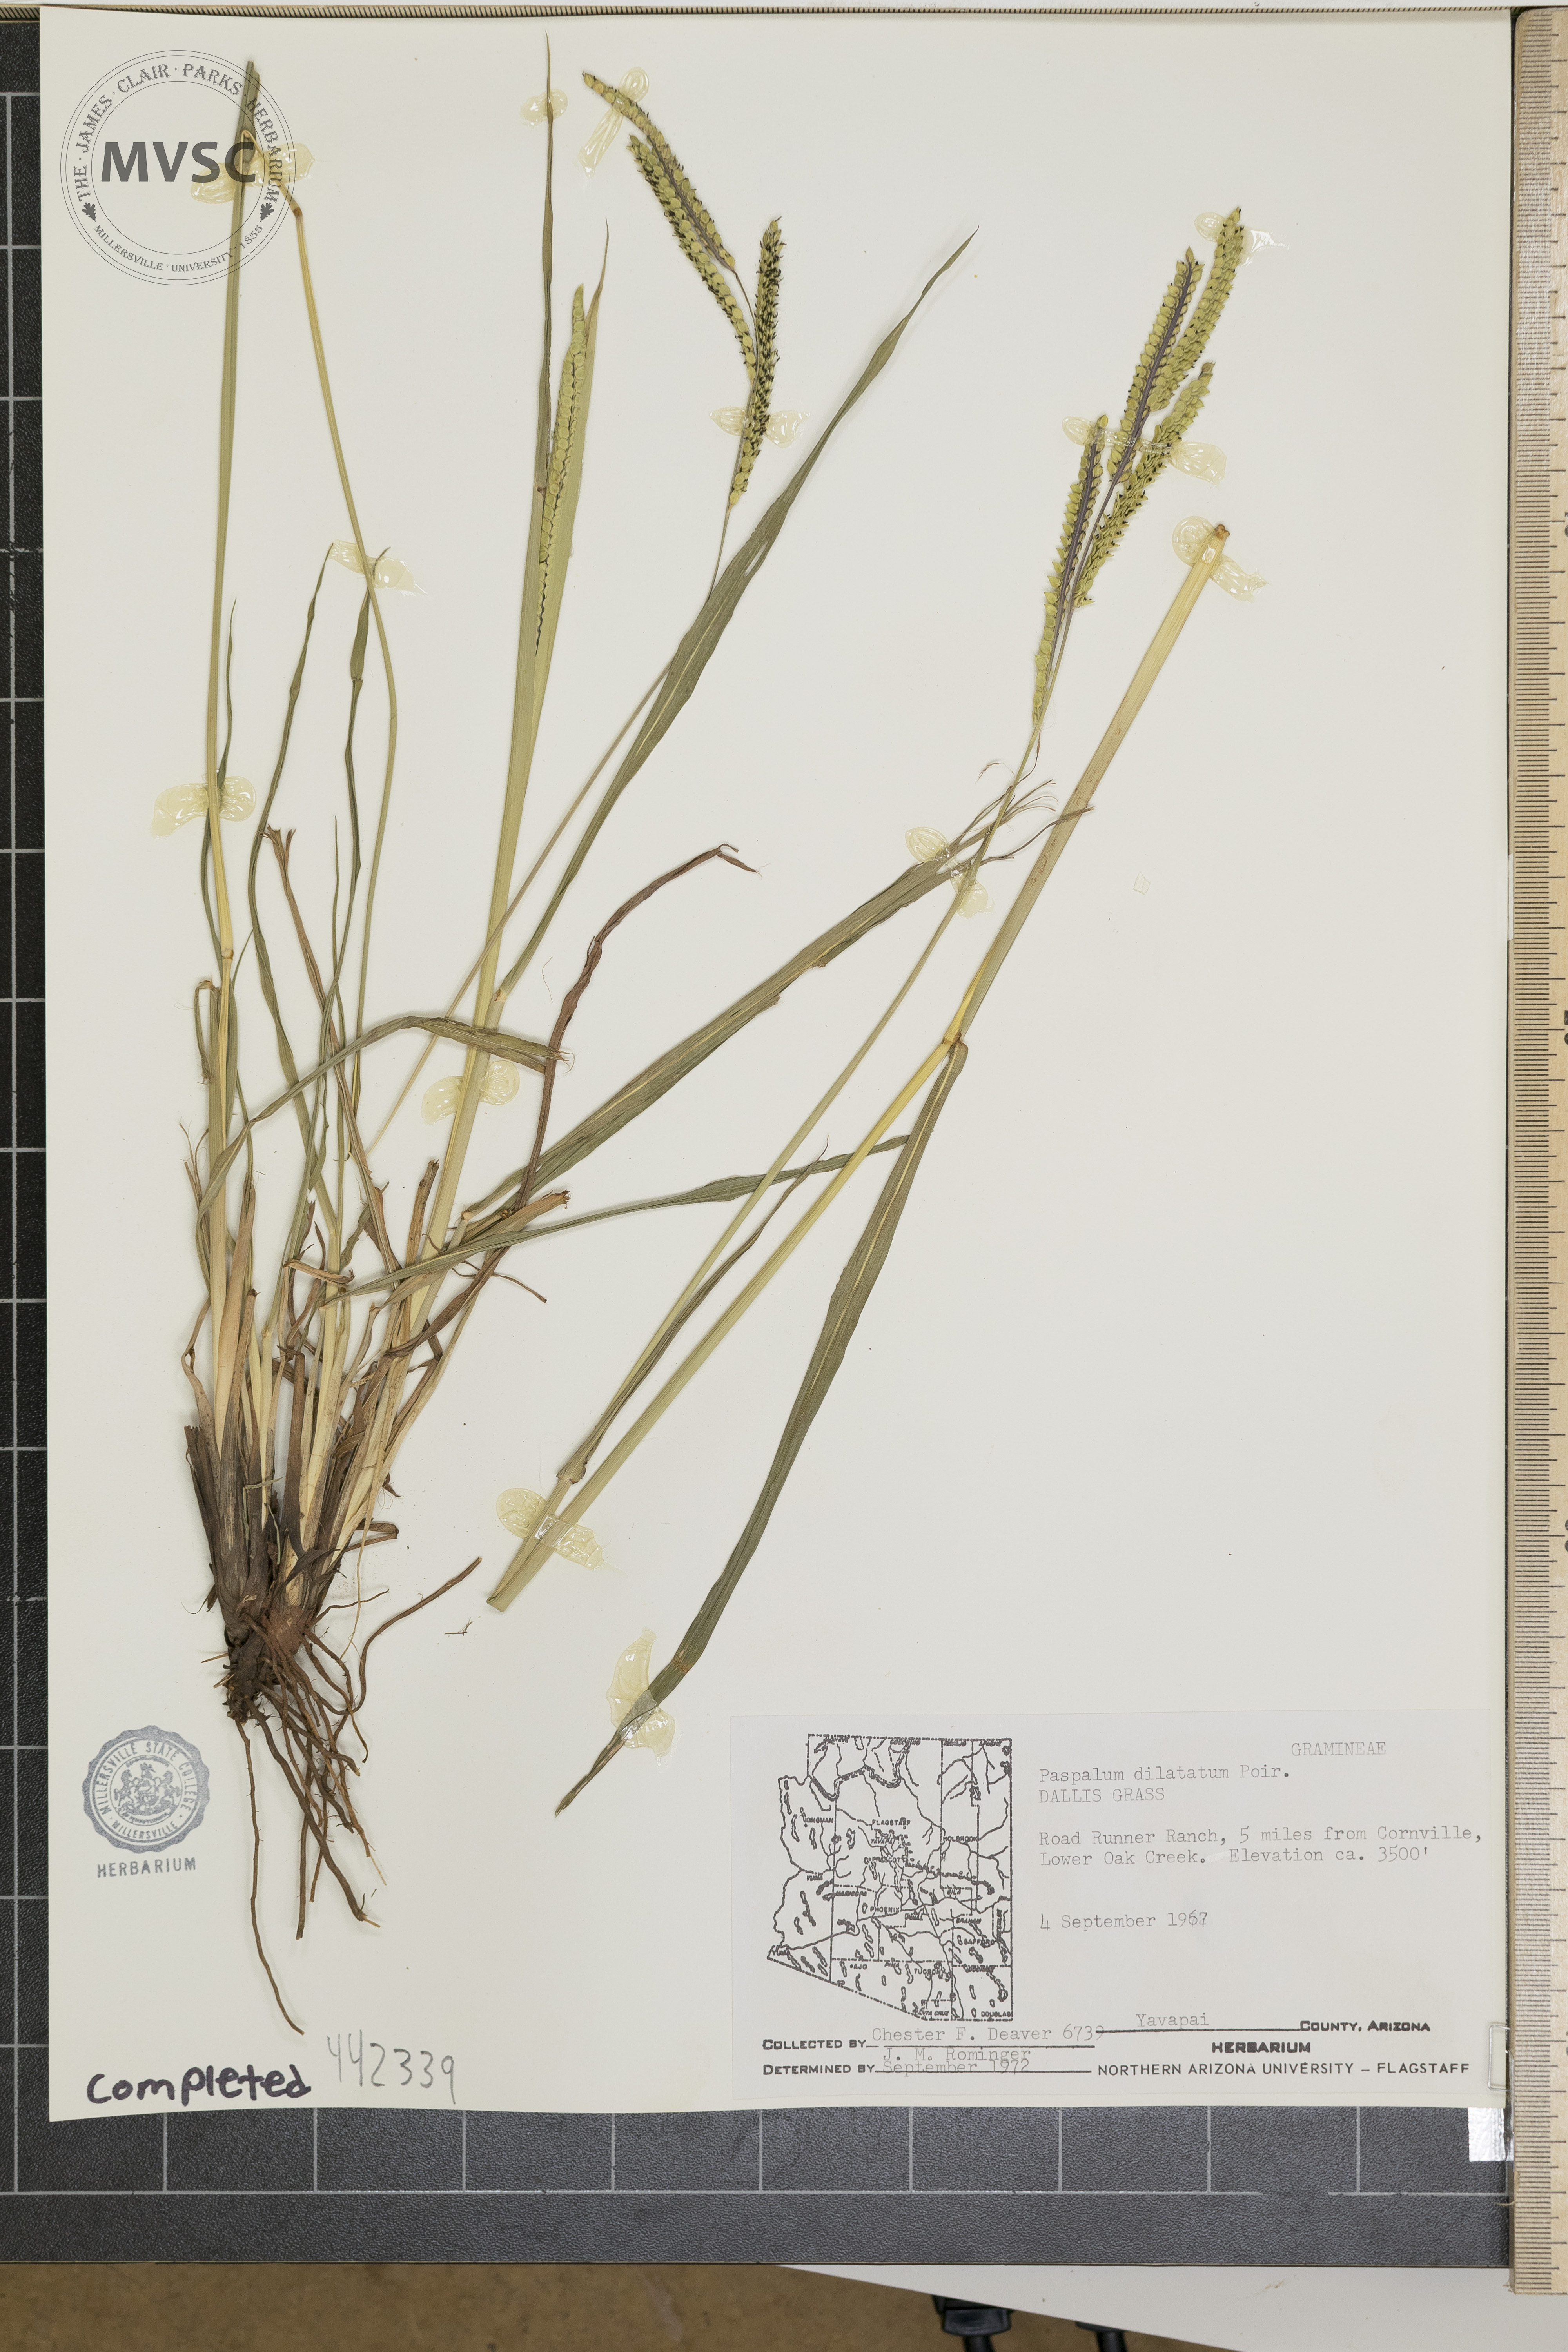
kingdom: Plantae
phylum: Tracheophyta
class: Liliopsida
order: Poales
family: Poaceae
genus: Paspalum
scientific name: Paspalum dilatatum
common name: Dallis grass
